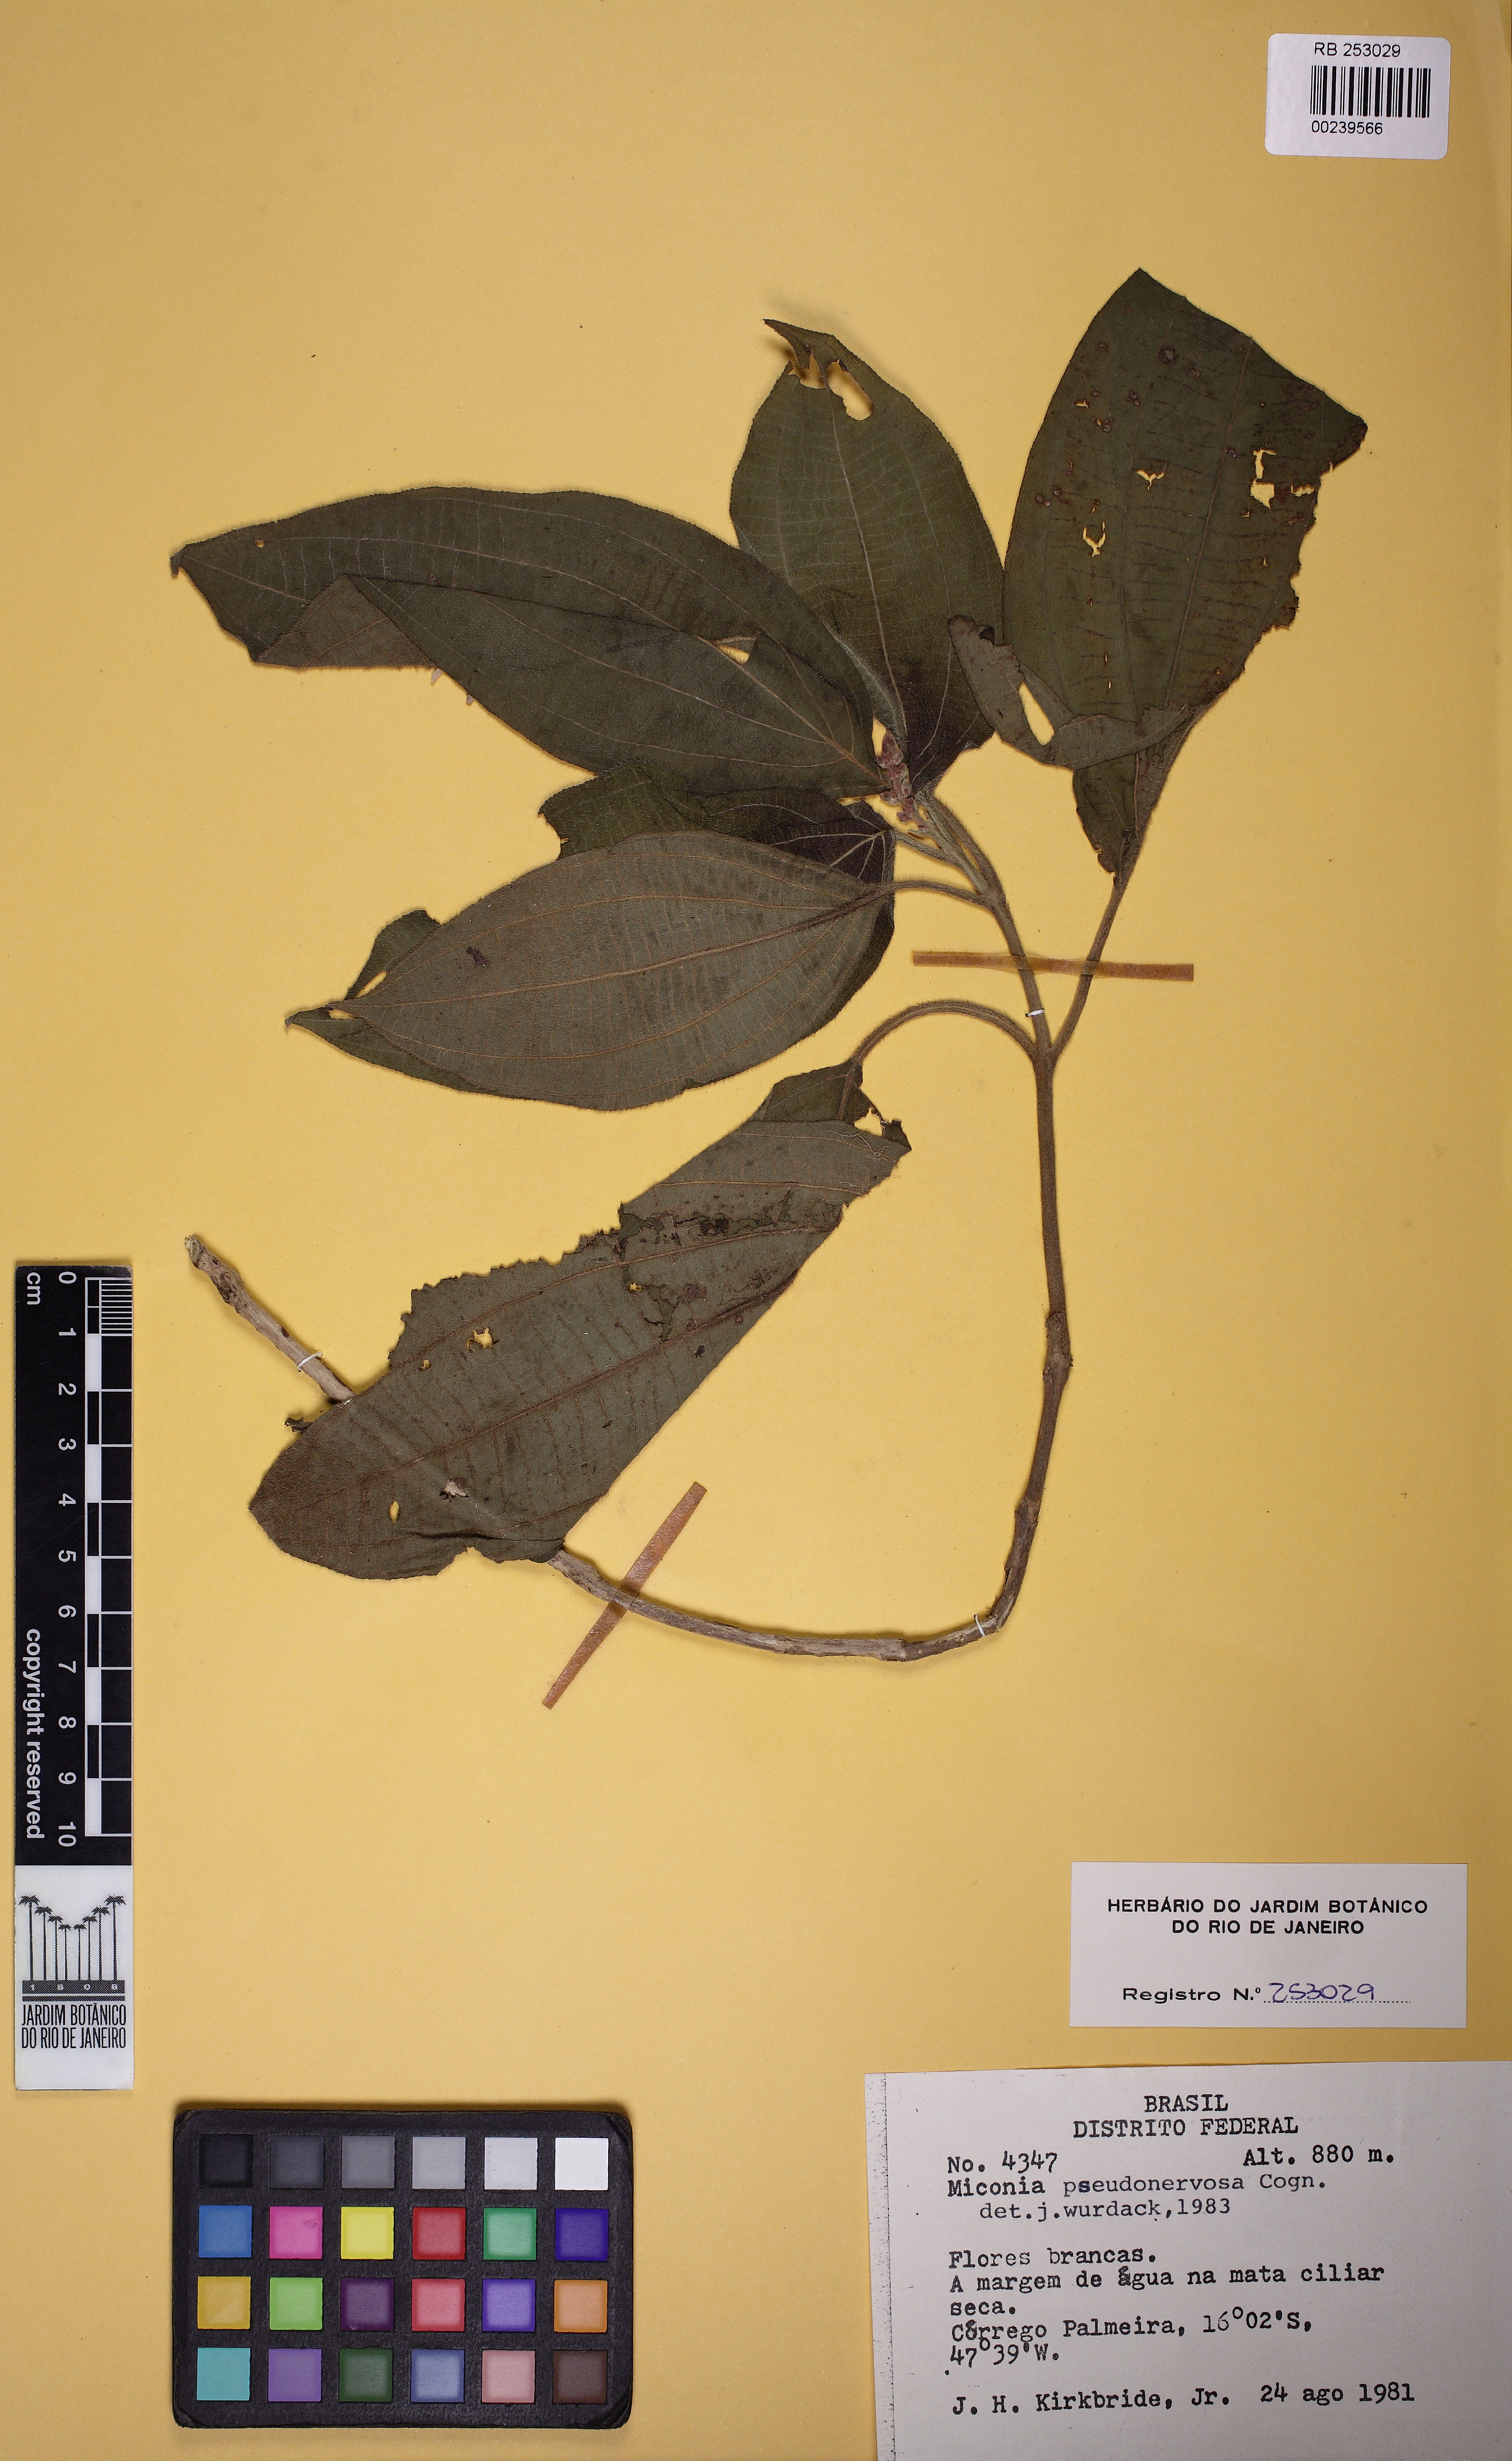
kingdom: Plantae
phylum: Tracheophyta
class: Magnoliopsida
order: Myrtales
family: Melastomataceae
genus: Miconia
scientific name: Miconia pseudonervosa
